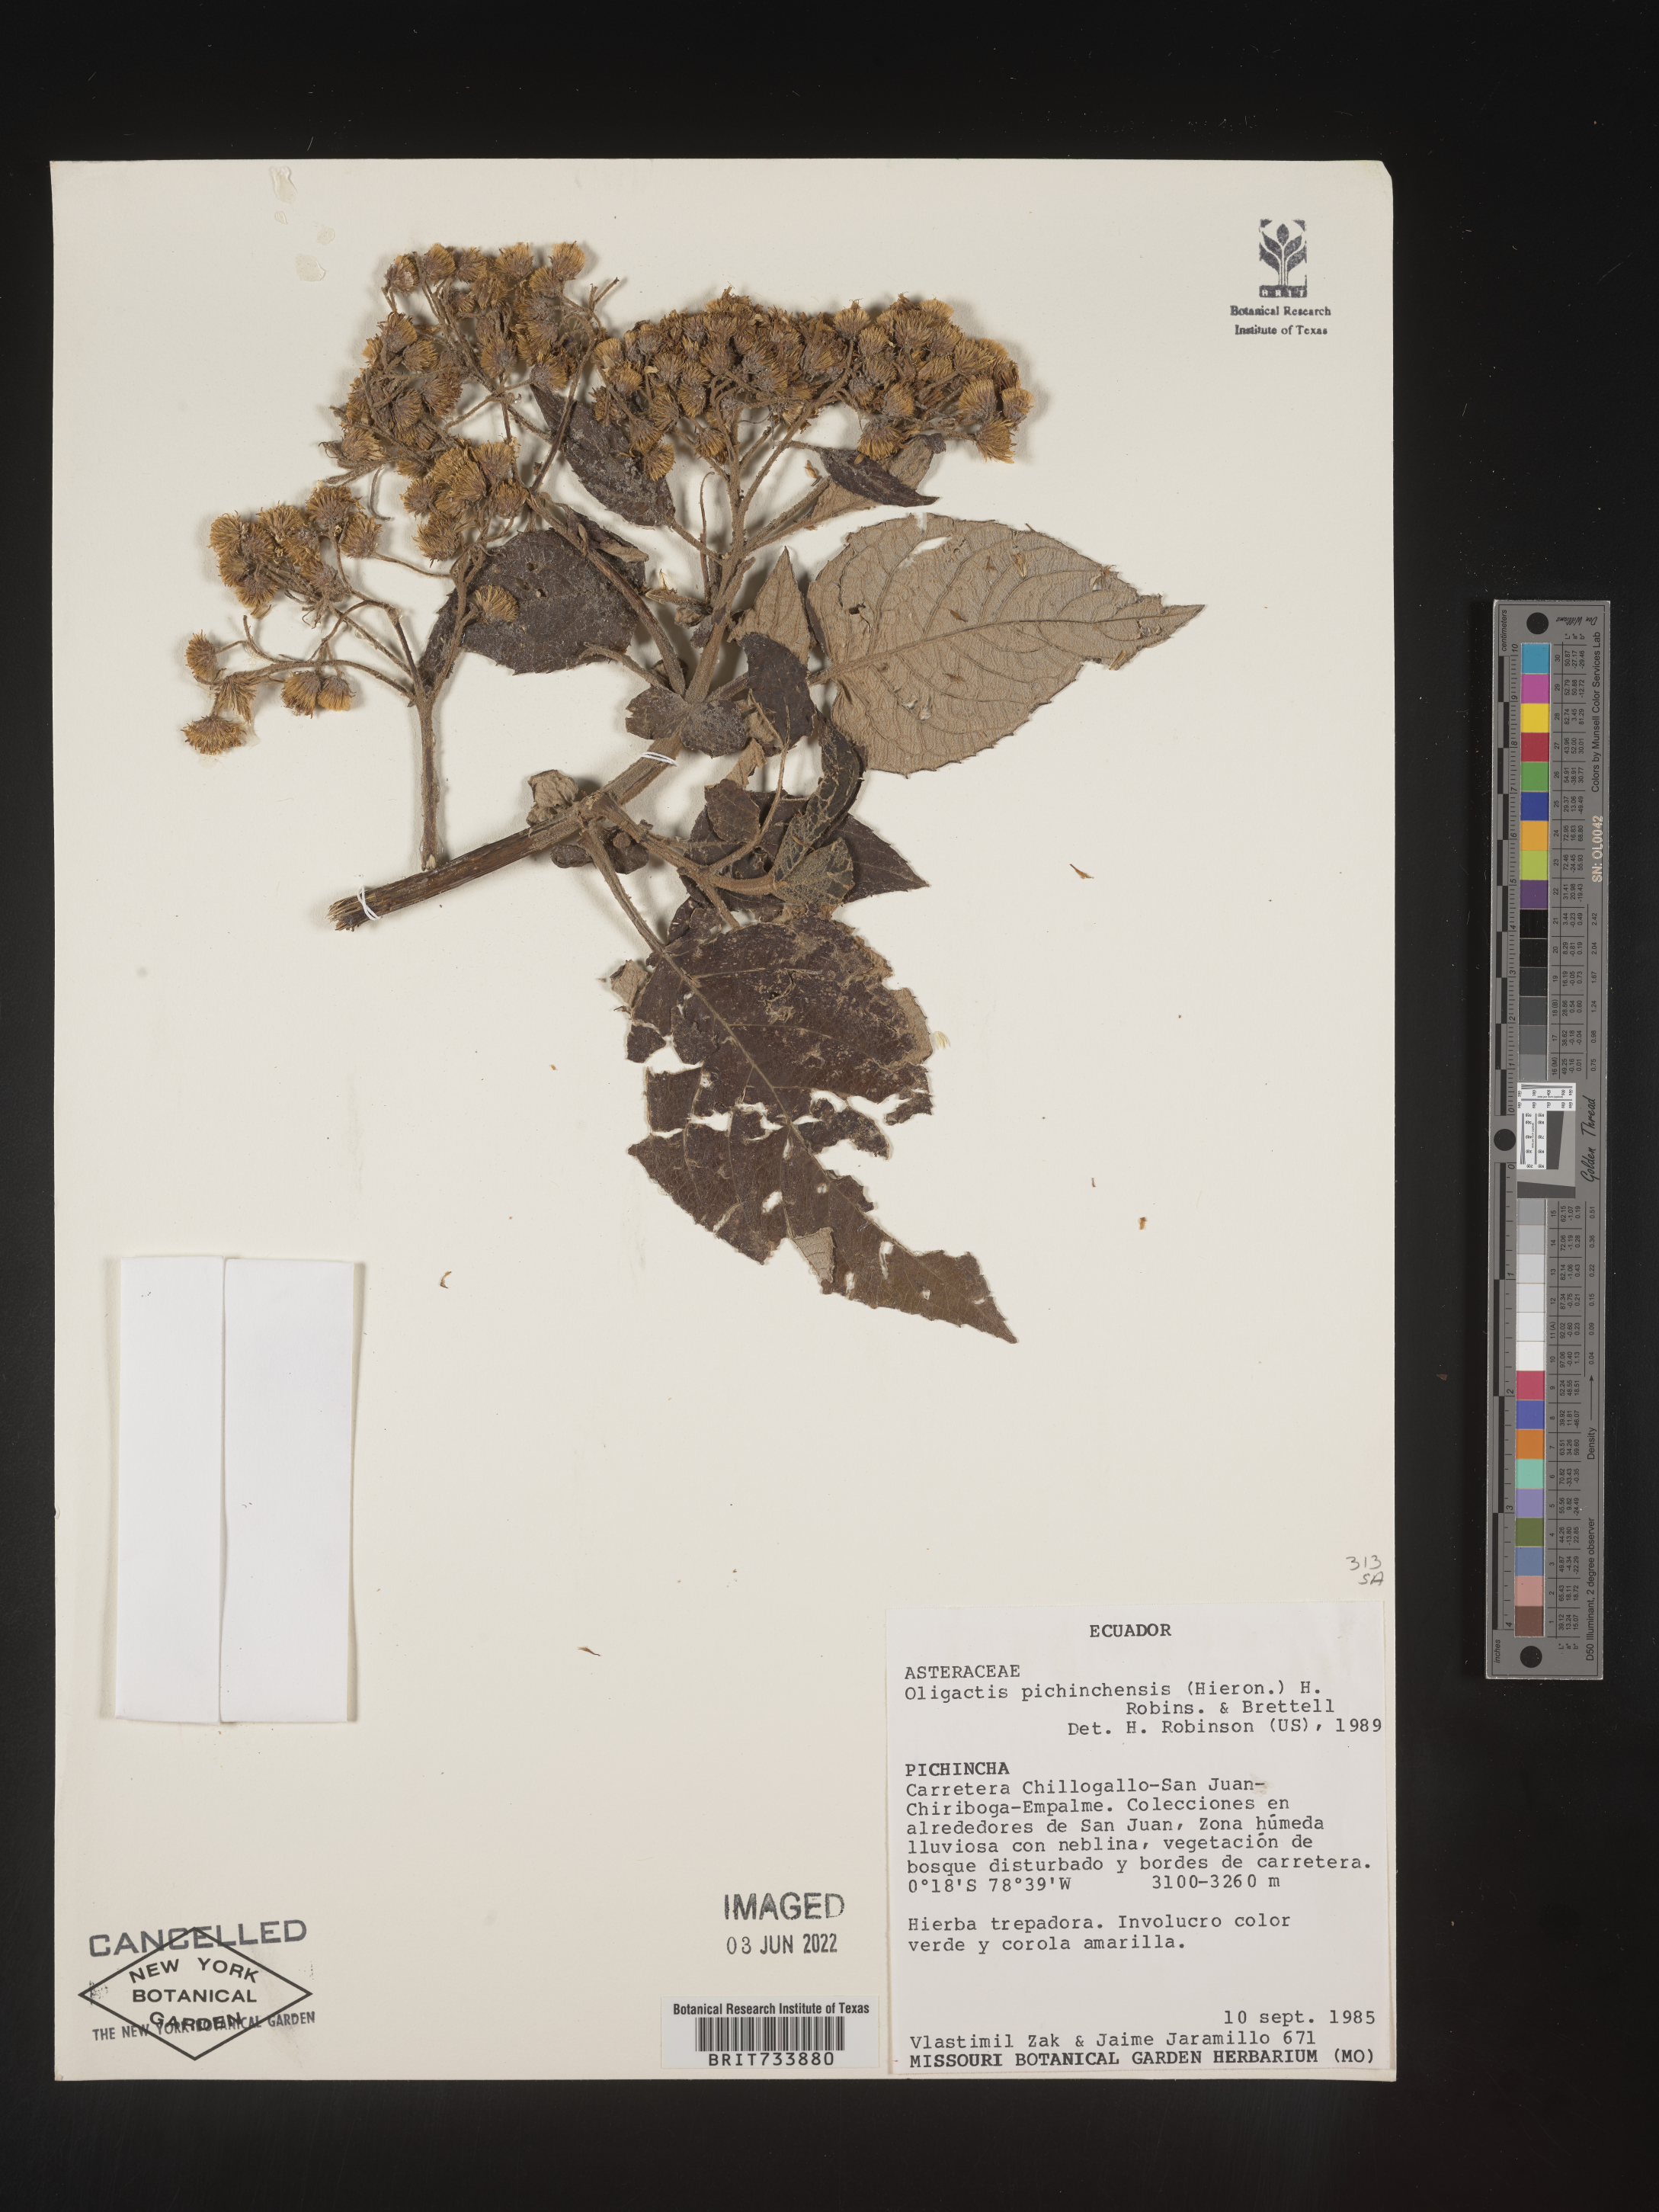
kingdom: Plantae
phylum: Tracheophyta
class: Magnoliopsida
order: Asterales
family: Asteraceae
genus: Sampera
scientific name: Sampera pichinchensis
